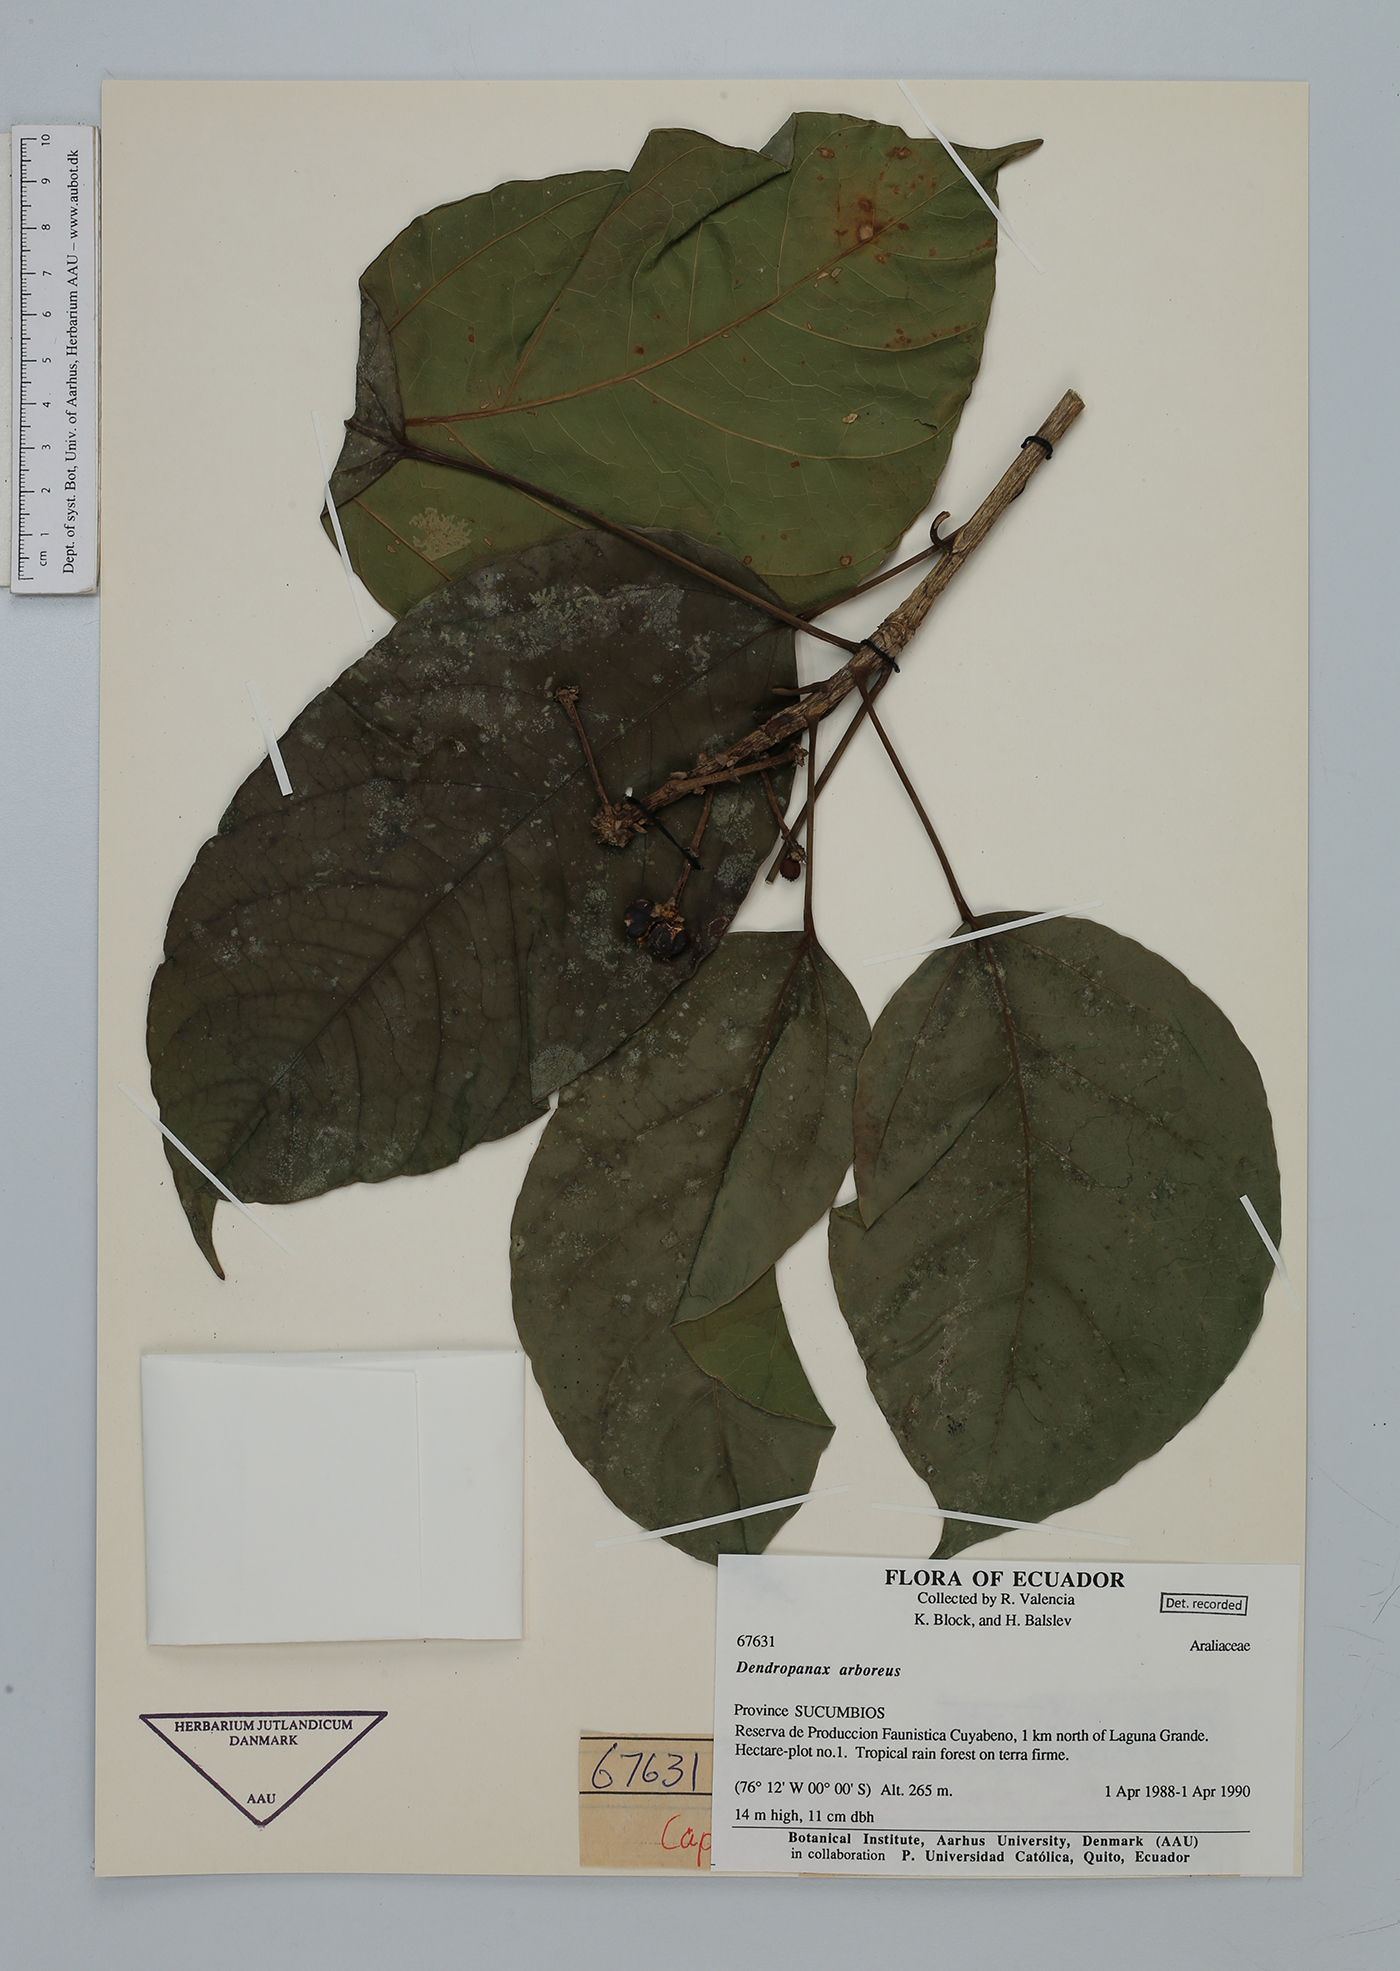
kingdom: Plantae
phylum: Tracheophyta
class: Magnoliopsida
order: Apiales
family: Araliaceae
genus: Dendropanax
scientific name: Dendropanax arboreus
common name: Potato-wood
